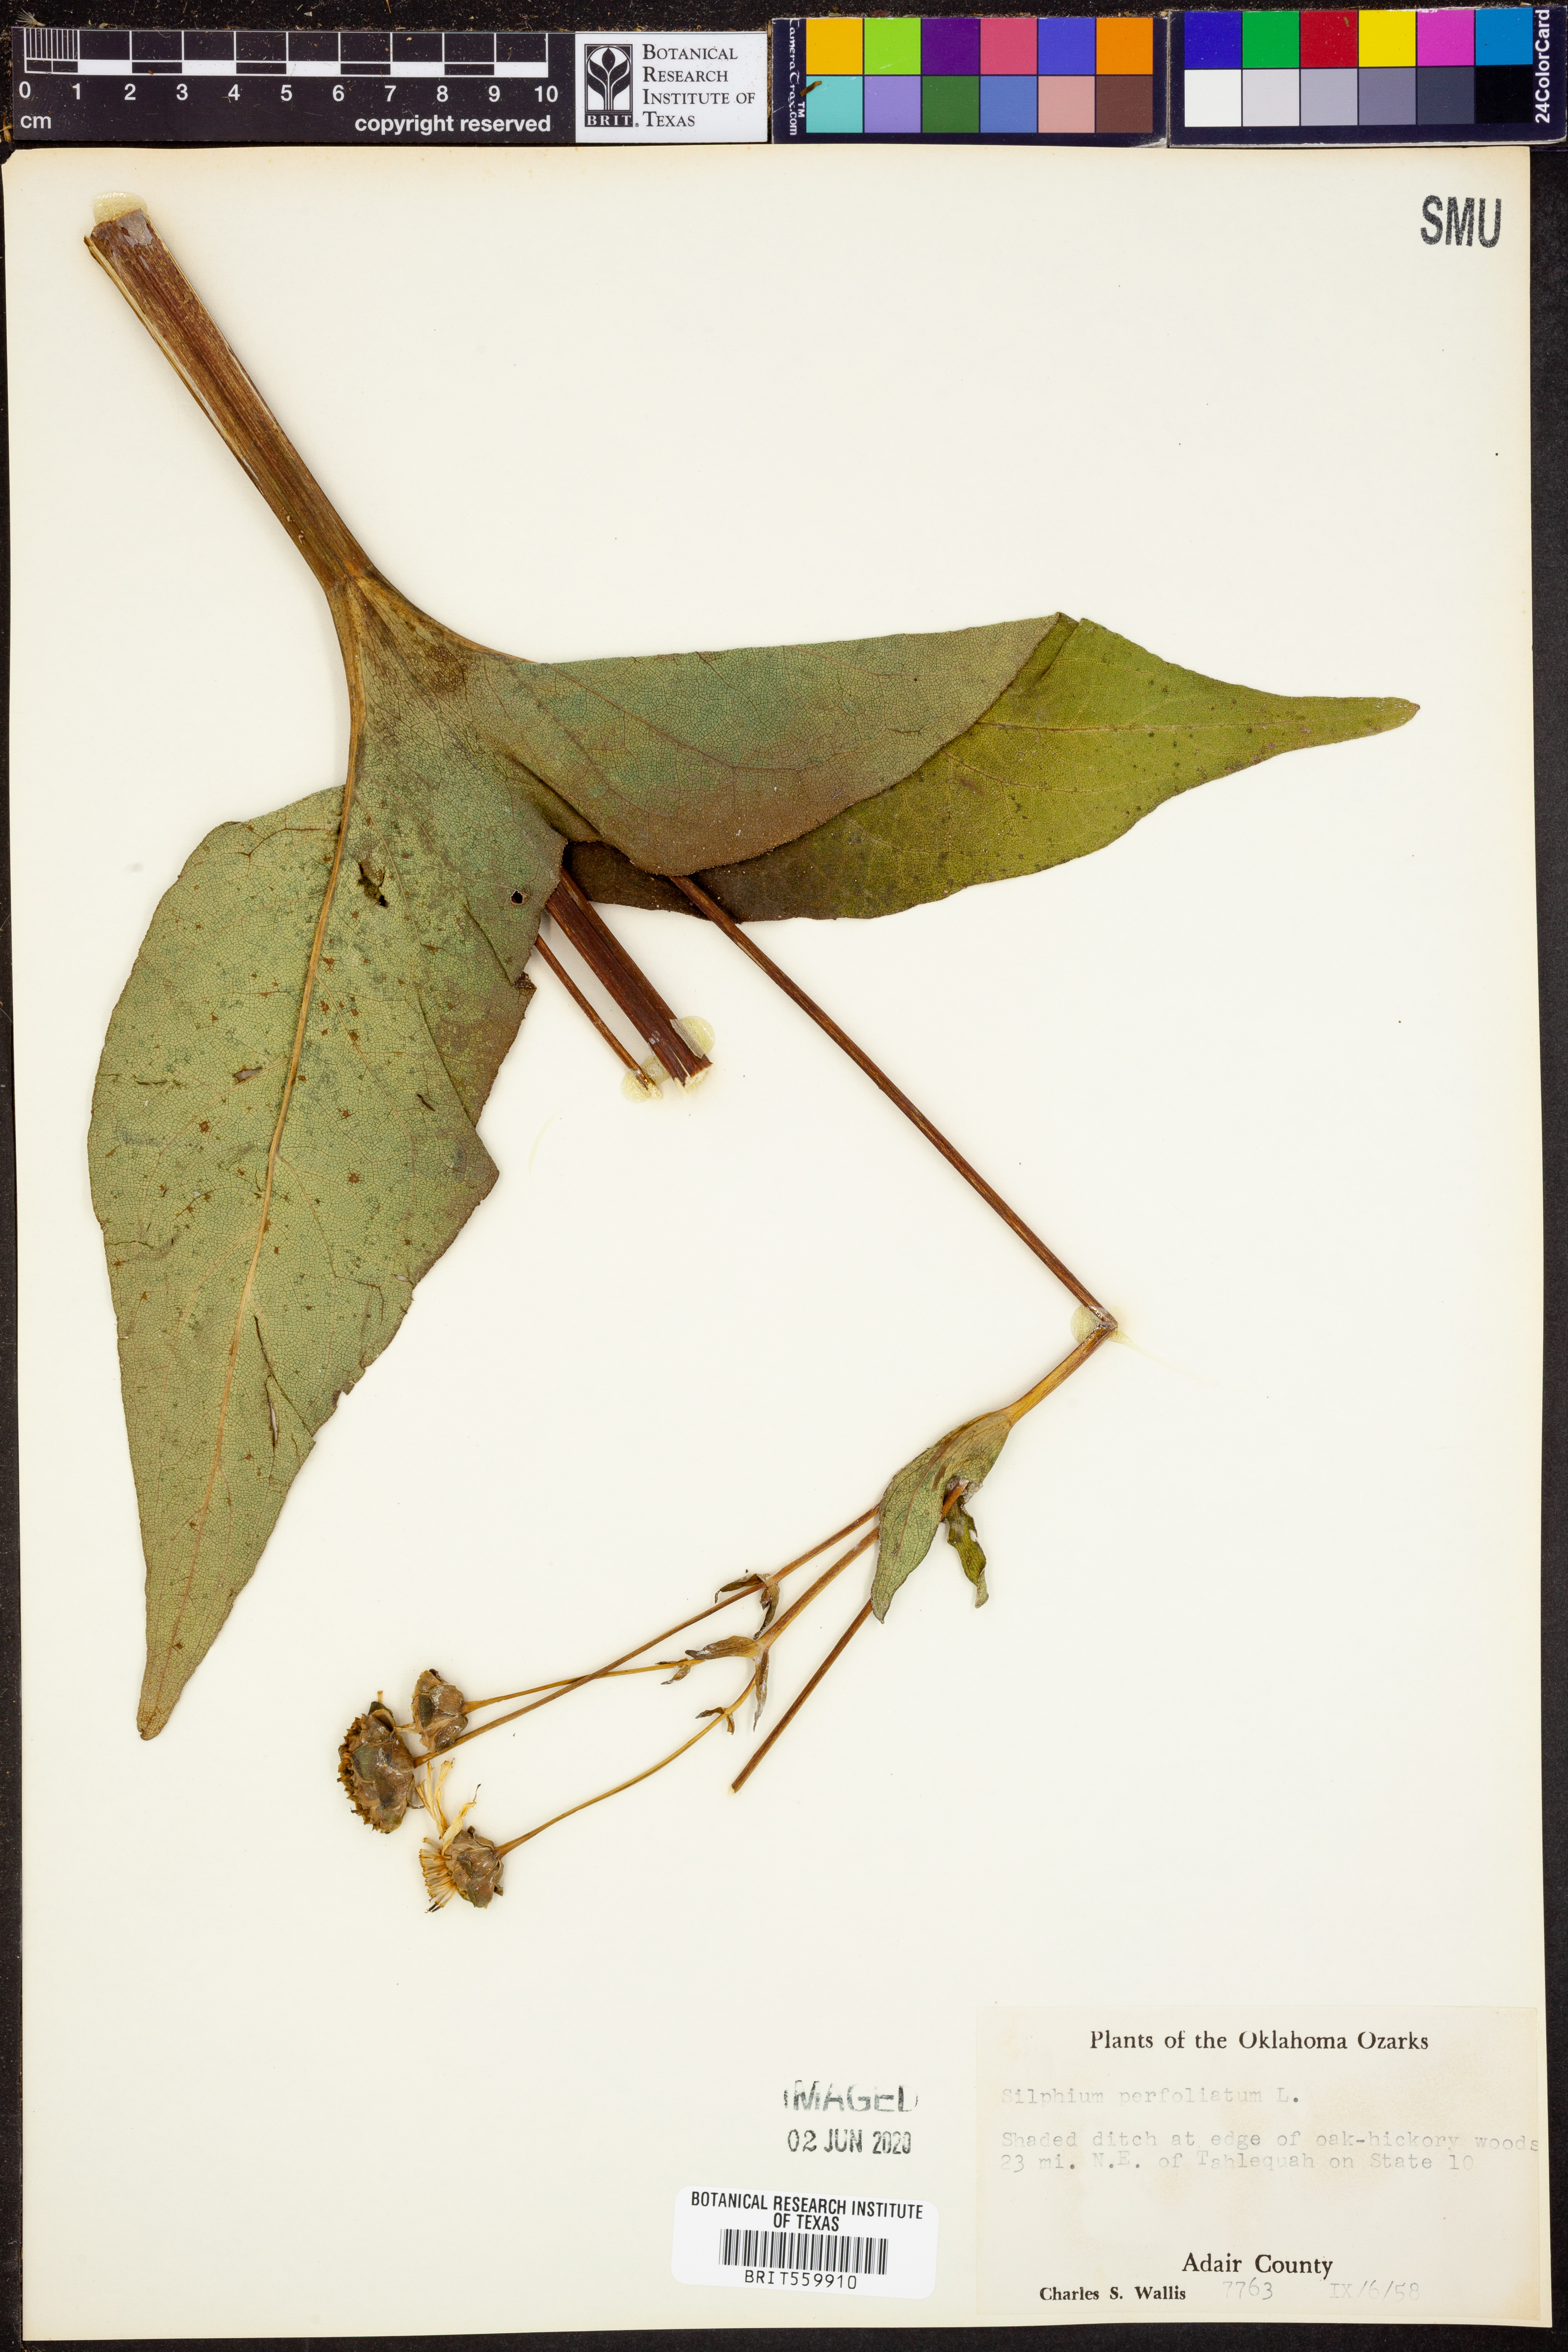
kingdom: Plantae
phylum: Tracheophyta
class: Magnoliopsida
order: Asterales
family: Asteraceae
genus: Silphium
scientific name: Silphium perfoliatum
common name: Cup-plant
